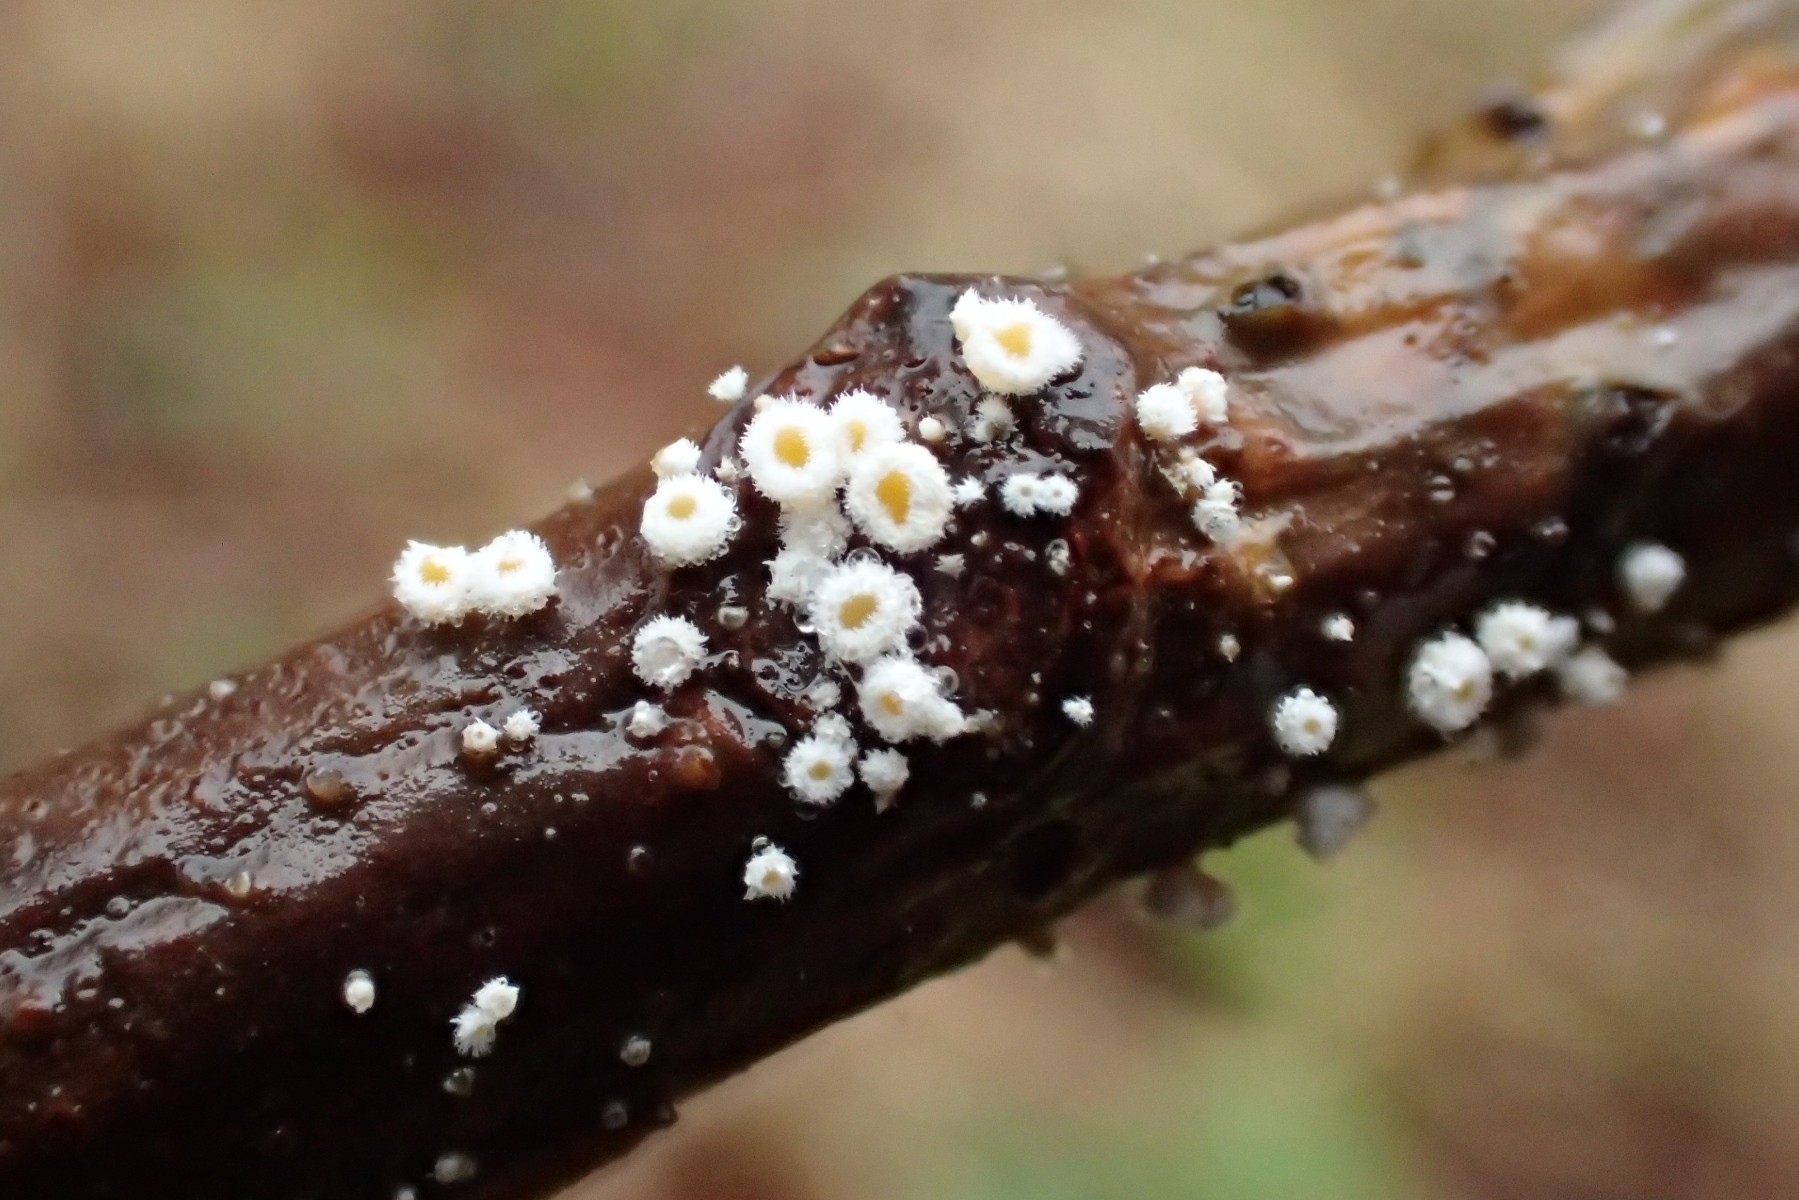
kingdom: Fungi
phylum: Ascomycota
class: Leotiomycetes
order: Helotiales
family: Lachnaceae
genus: Capitotricha
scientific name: Capitotricha bicolor
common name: prægtig frynseskive
